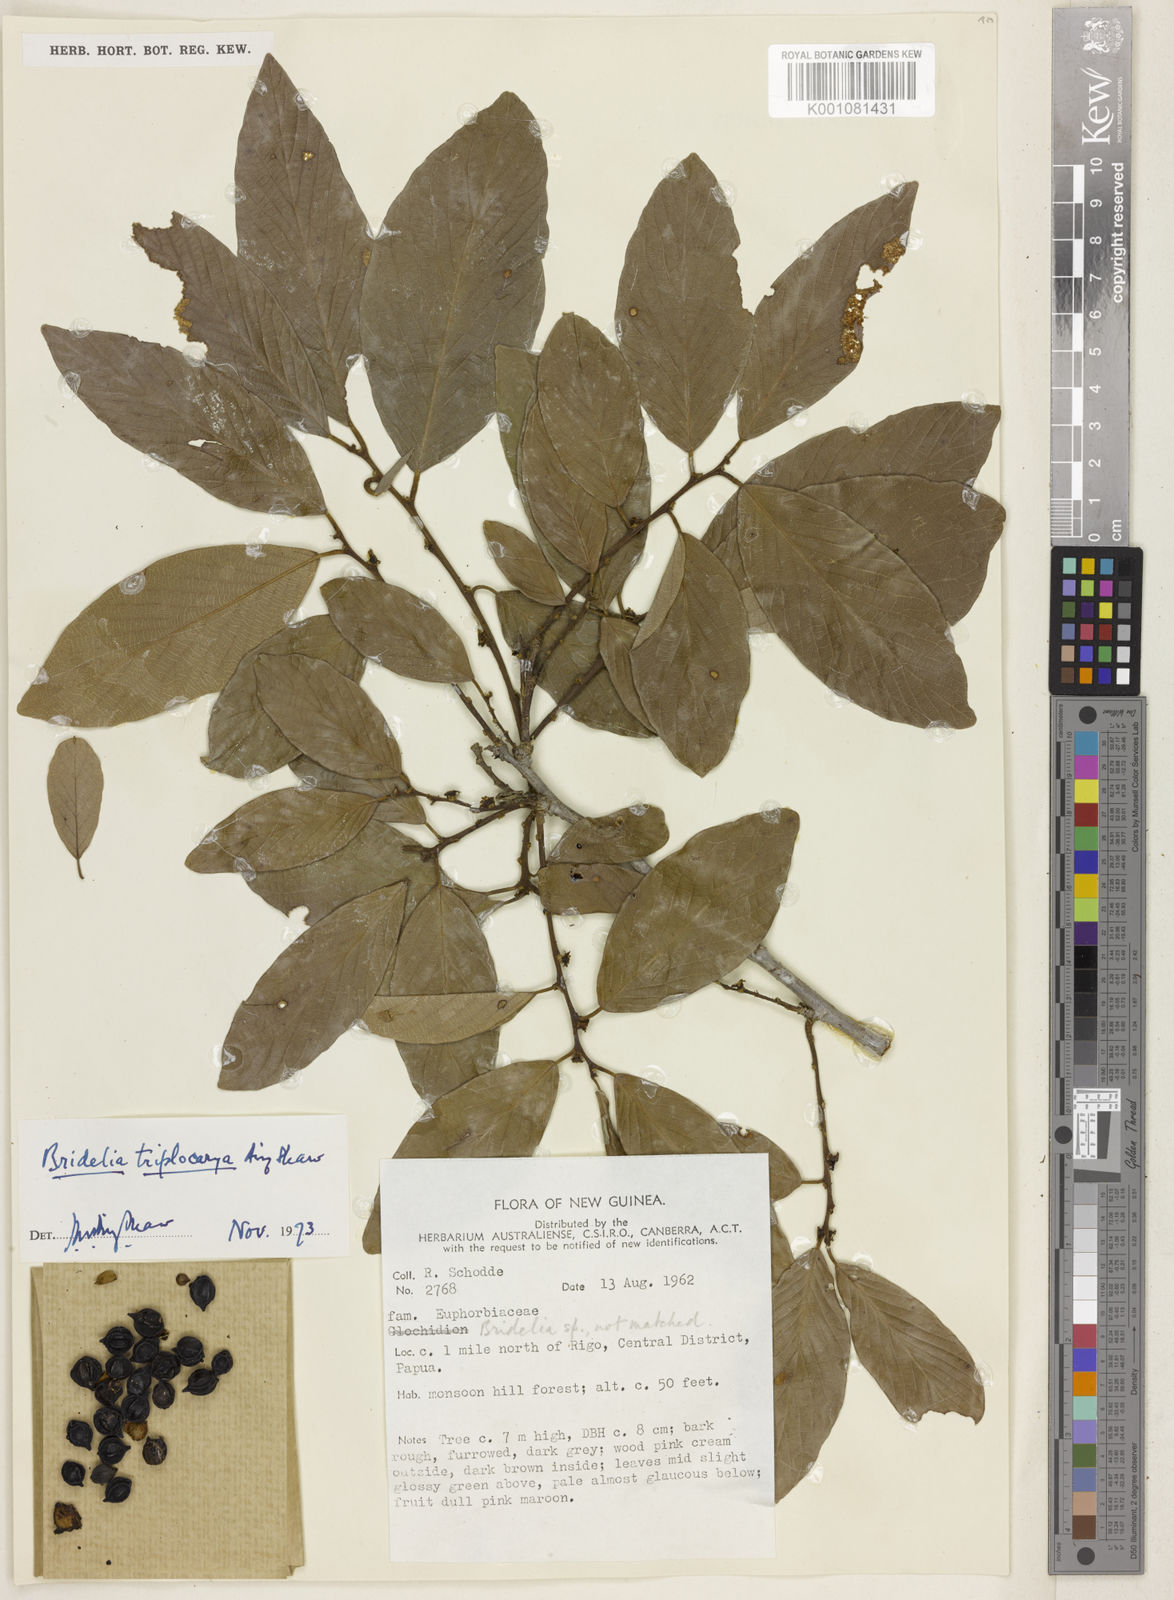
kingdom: Plantae
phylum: Tracheophyta
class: Magnoliopsida
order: Malpighiales
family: Phyllanthaceae
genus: Bridelia
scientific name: Bridelia triplocarya
